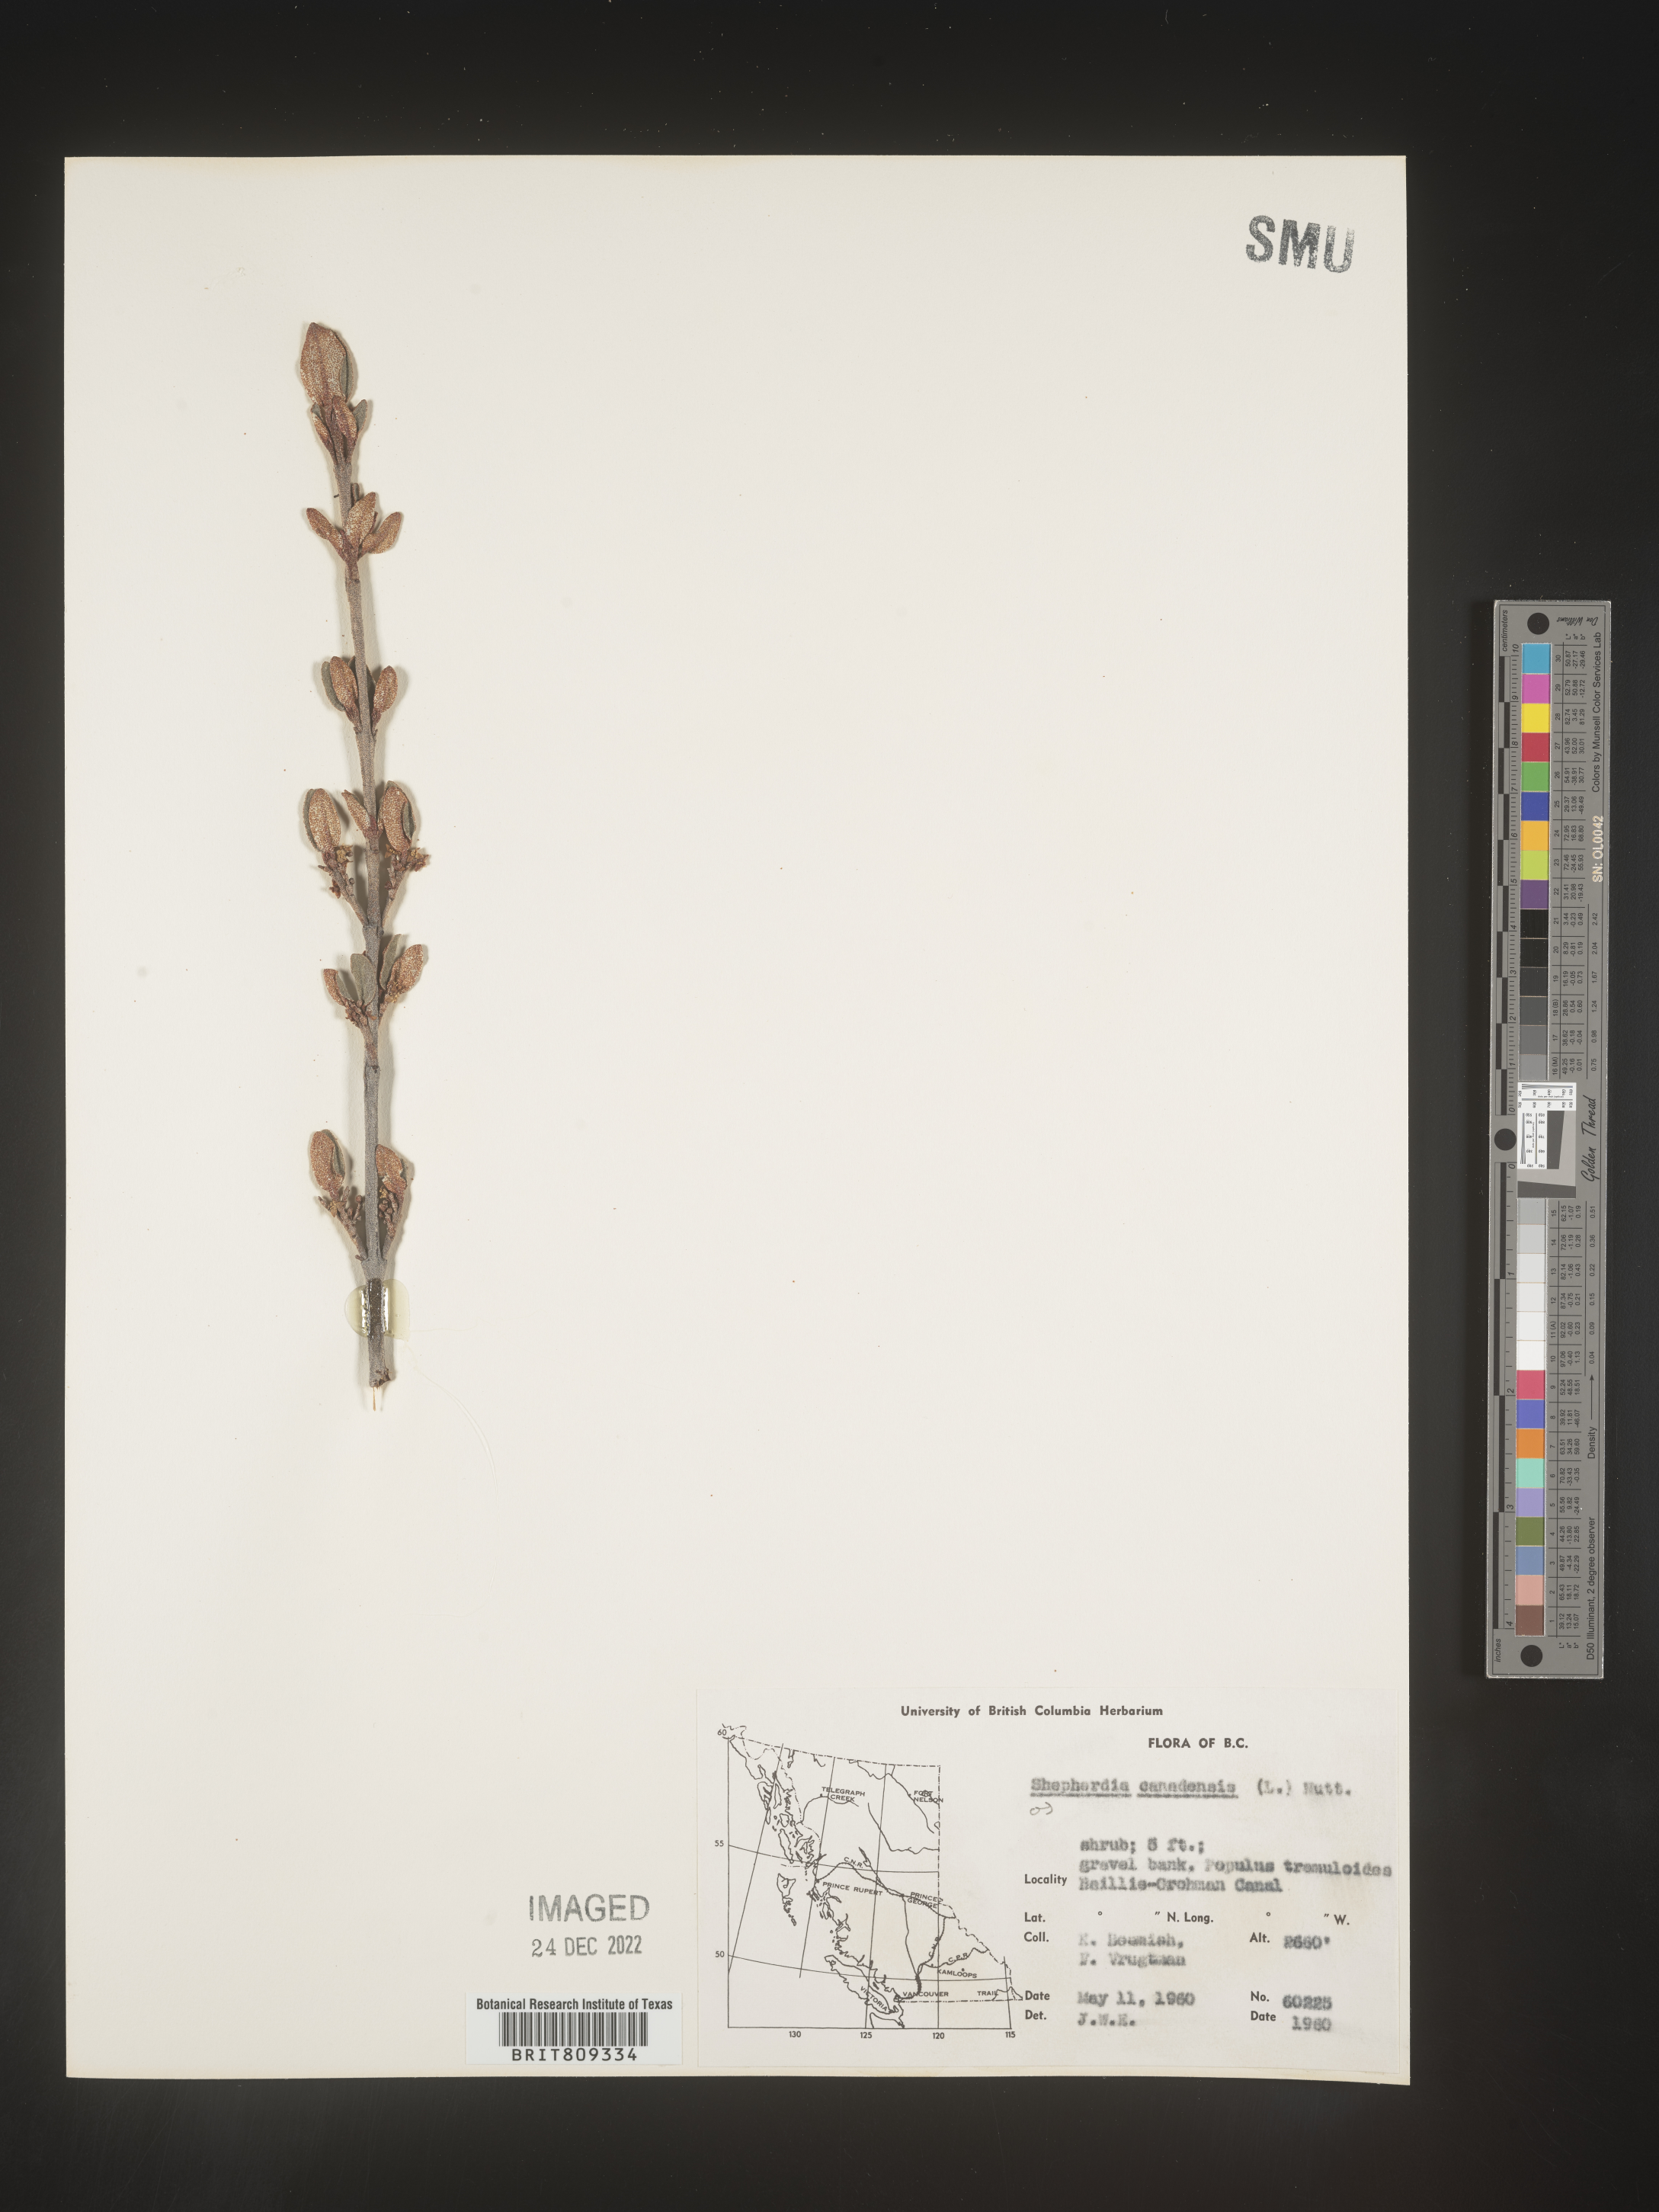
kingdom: Plantae
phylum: Tracheophyta
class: Magnoliopsida
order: Rosales
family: Elaeagnaceae
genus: Shepherdia
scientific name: Shepherdia canadensis
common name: Soapberry
